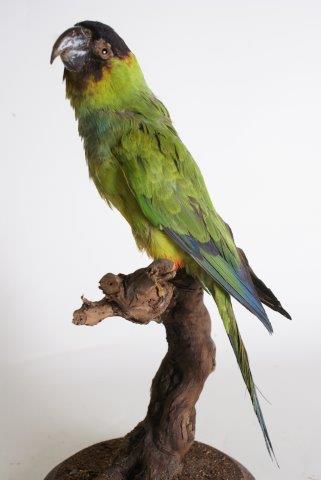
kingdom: Animalia
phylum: Chordata
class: Aves
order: Psittaciformes
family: Psittacidae
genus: Nandayus
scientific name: Nandayus nenday
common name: Nanday parakeet
